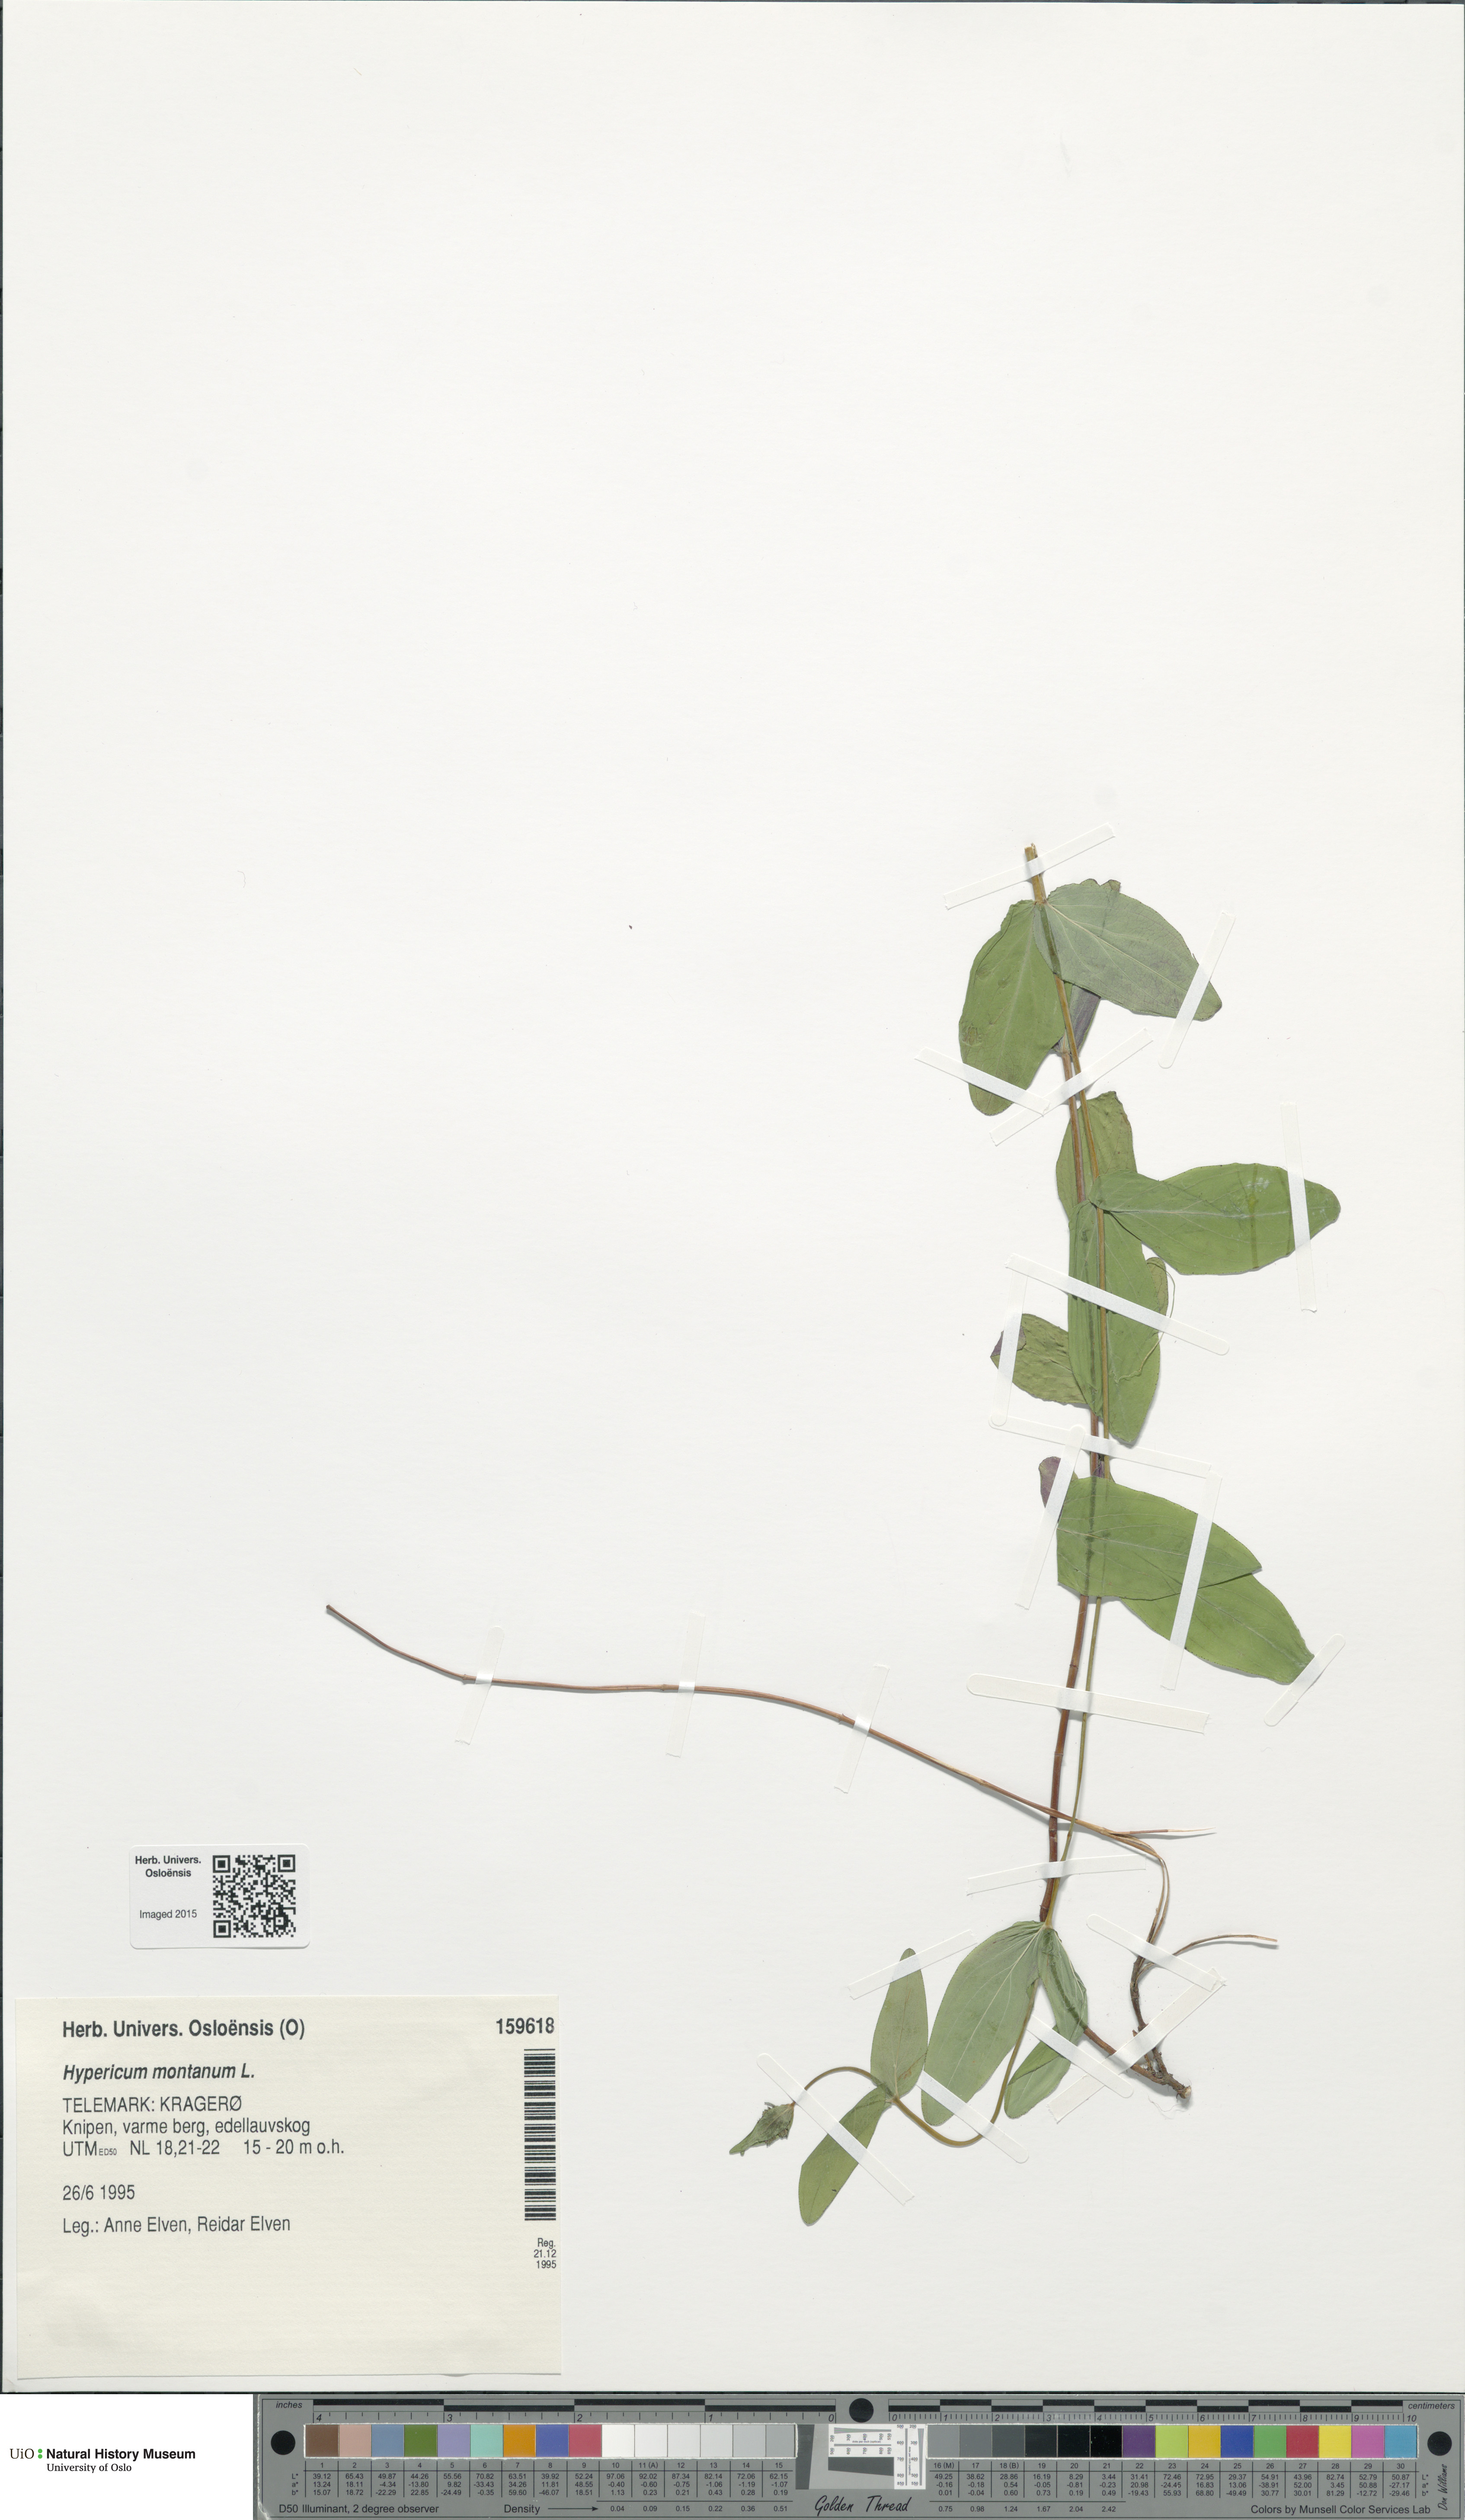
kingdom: Plantae
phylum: Tracheophyta
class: Magnoliopsida
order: Malpighiales
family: Hypericaceae
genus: Hypericum
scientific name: Hypericum montanum
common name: Pale st. john's-wort
